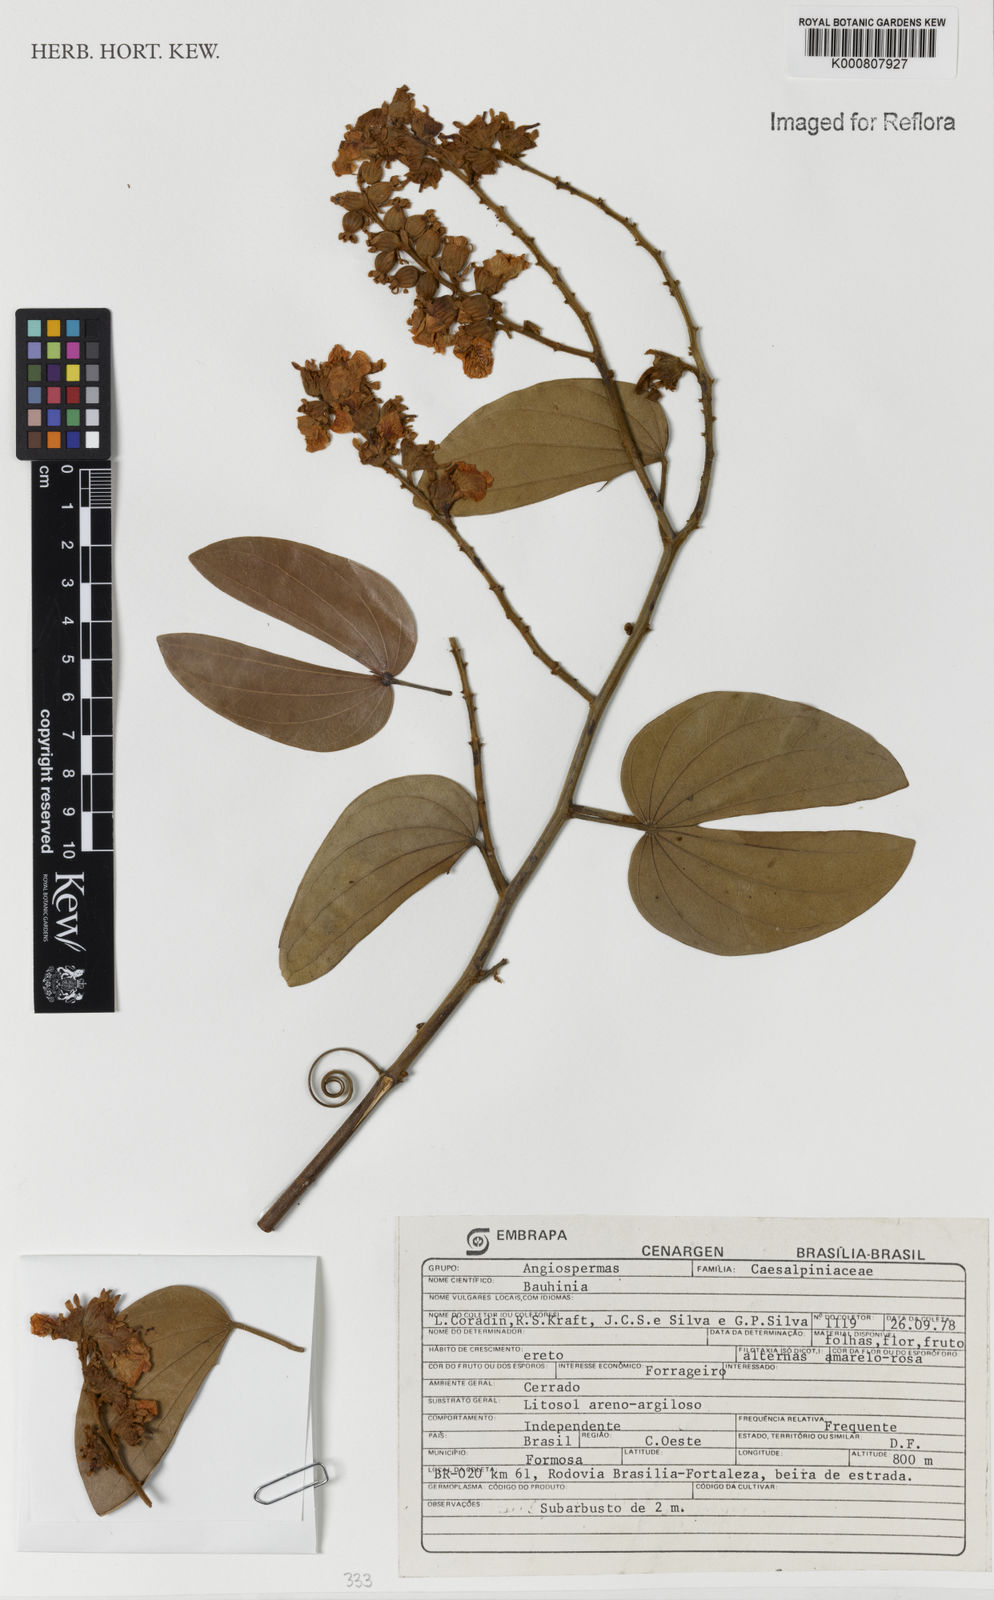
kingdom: Plantae
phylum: Tracheophyta
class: Magnoliopsida
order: Fabales
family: Fabaceae
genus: Schnella
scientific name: Schnella outimouta
